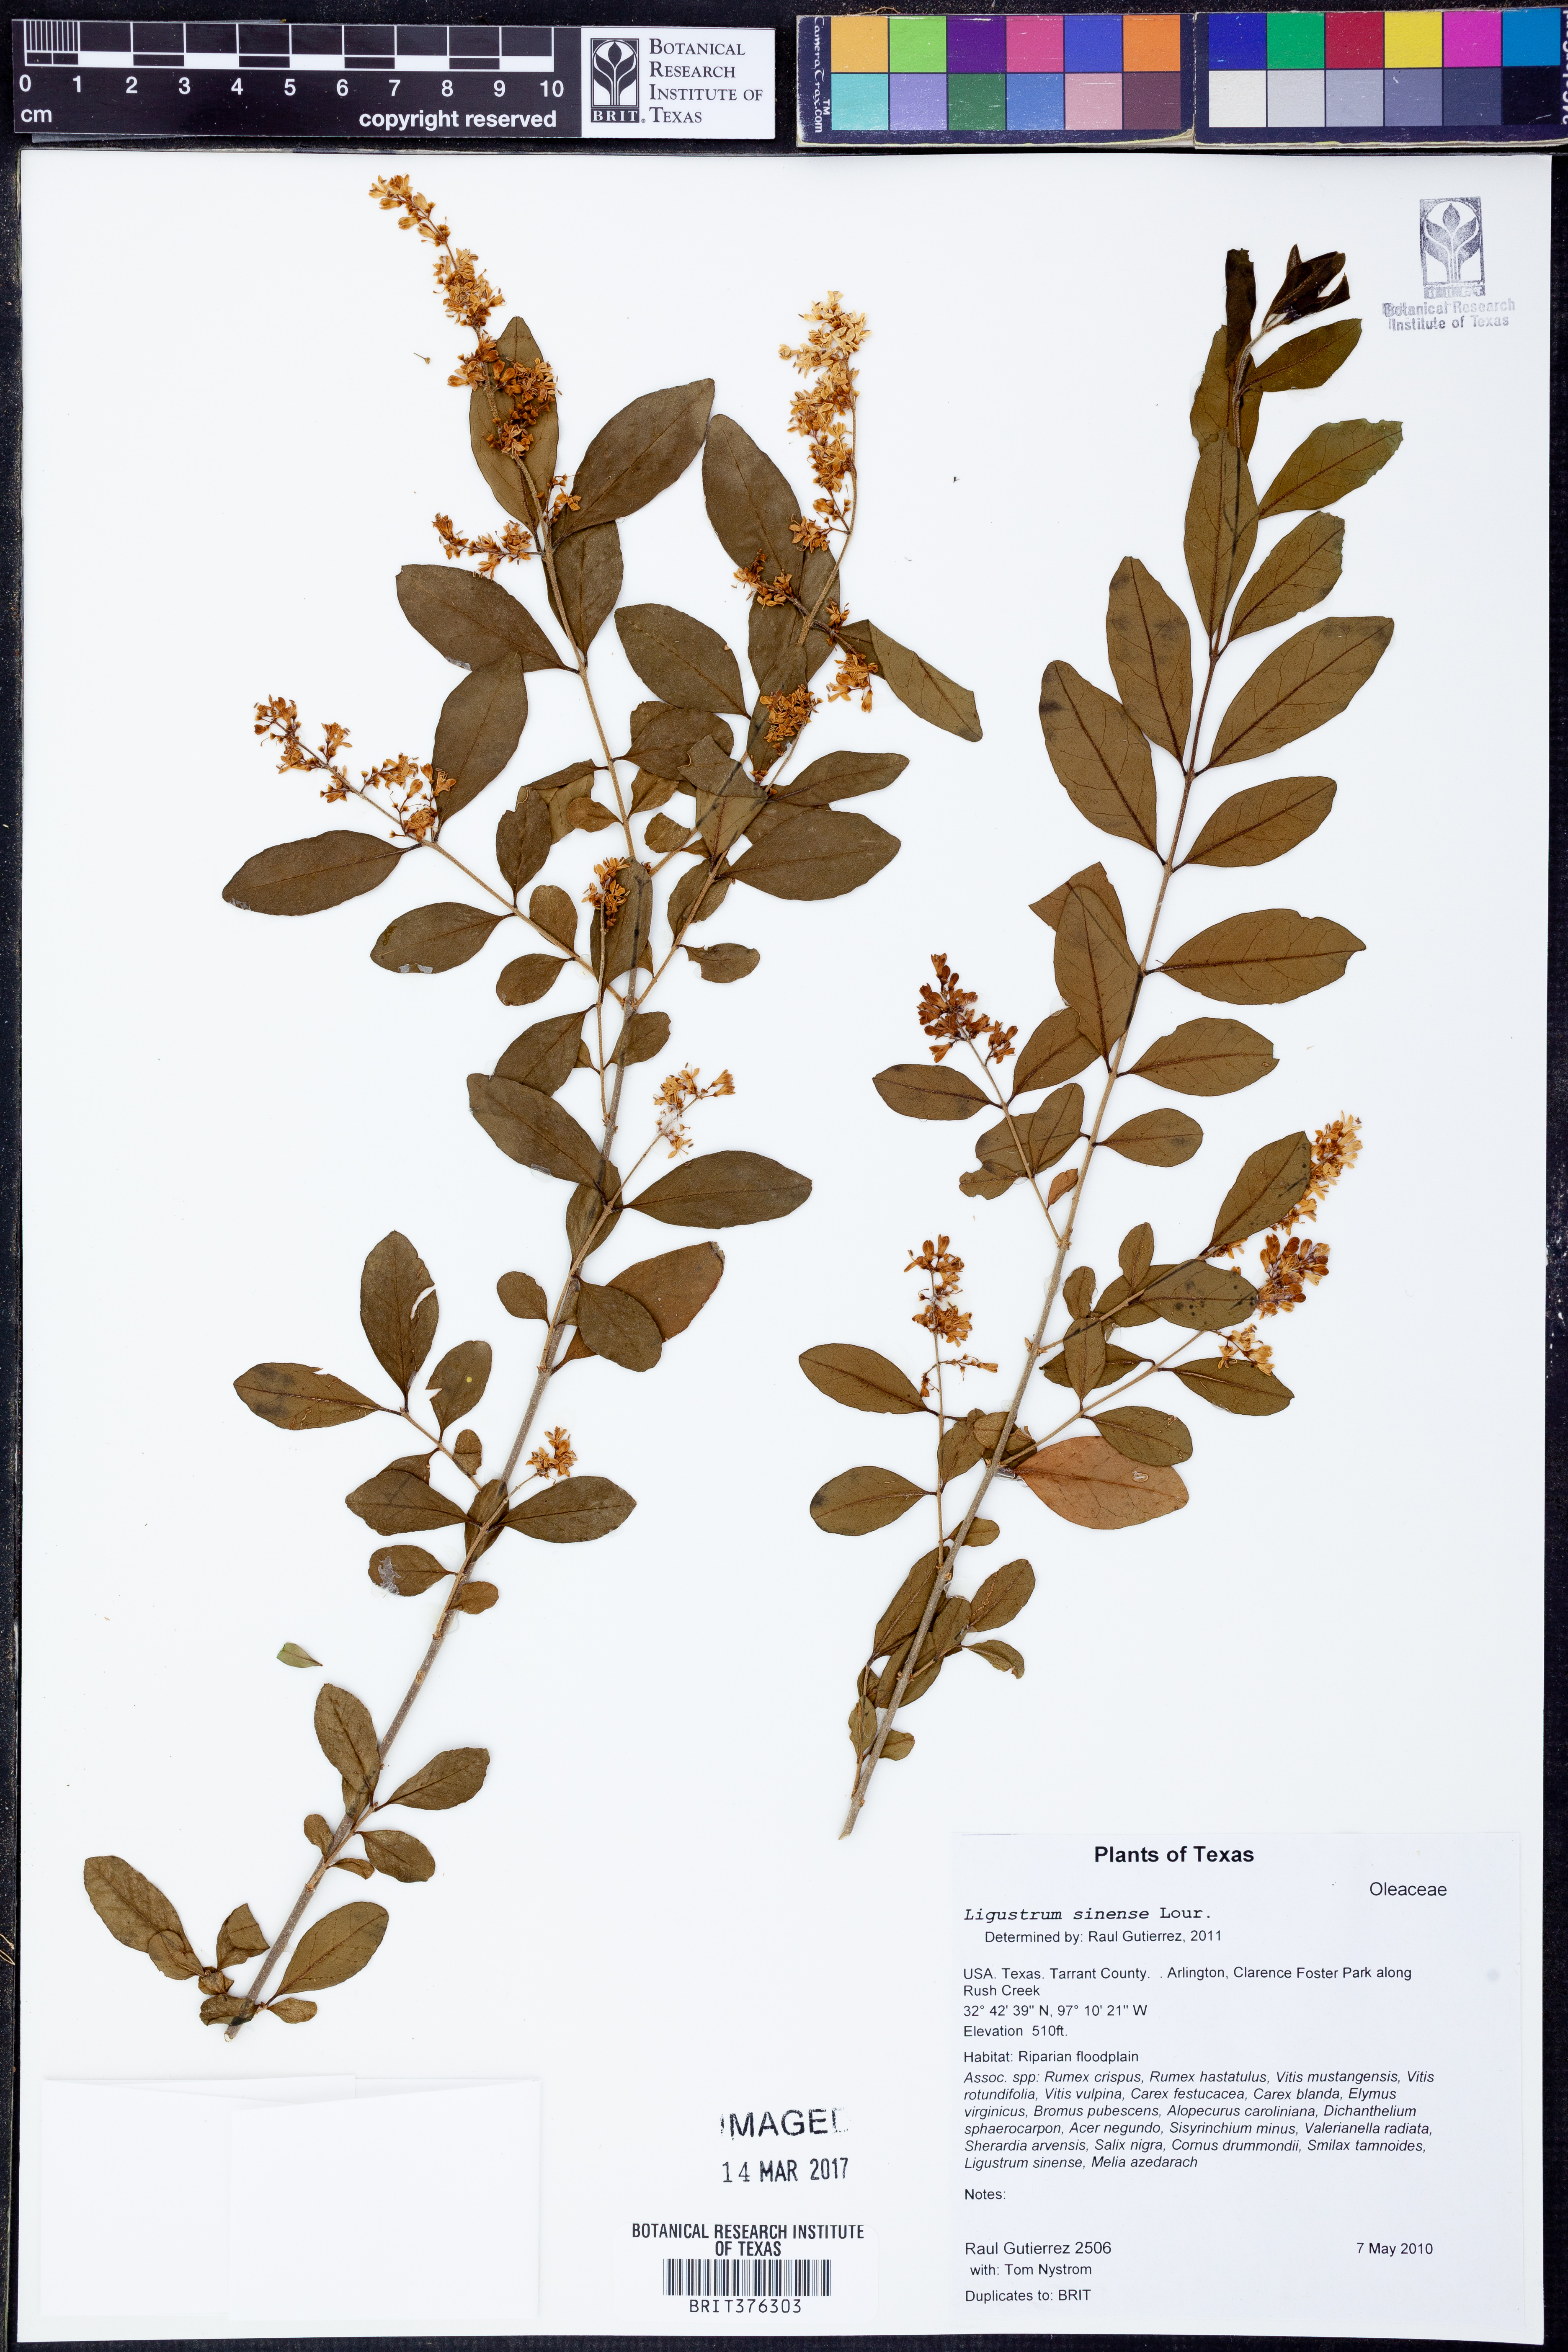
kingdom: Plantae
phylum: Tracheophyta
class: Magnoliopsida
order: Lamiales
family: Oleaceae
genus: Ligustrum
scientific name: Ligustrum sinense
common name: Chinese privet
